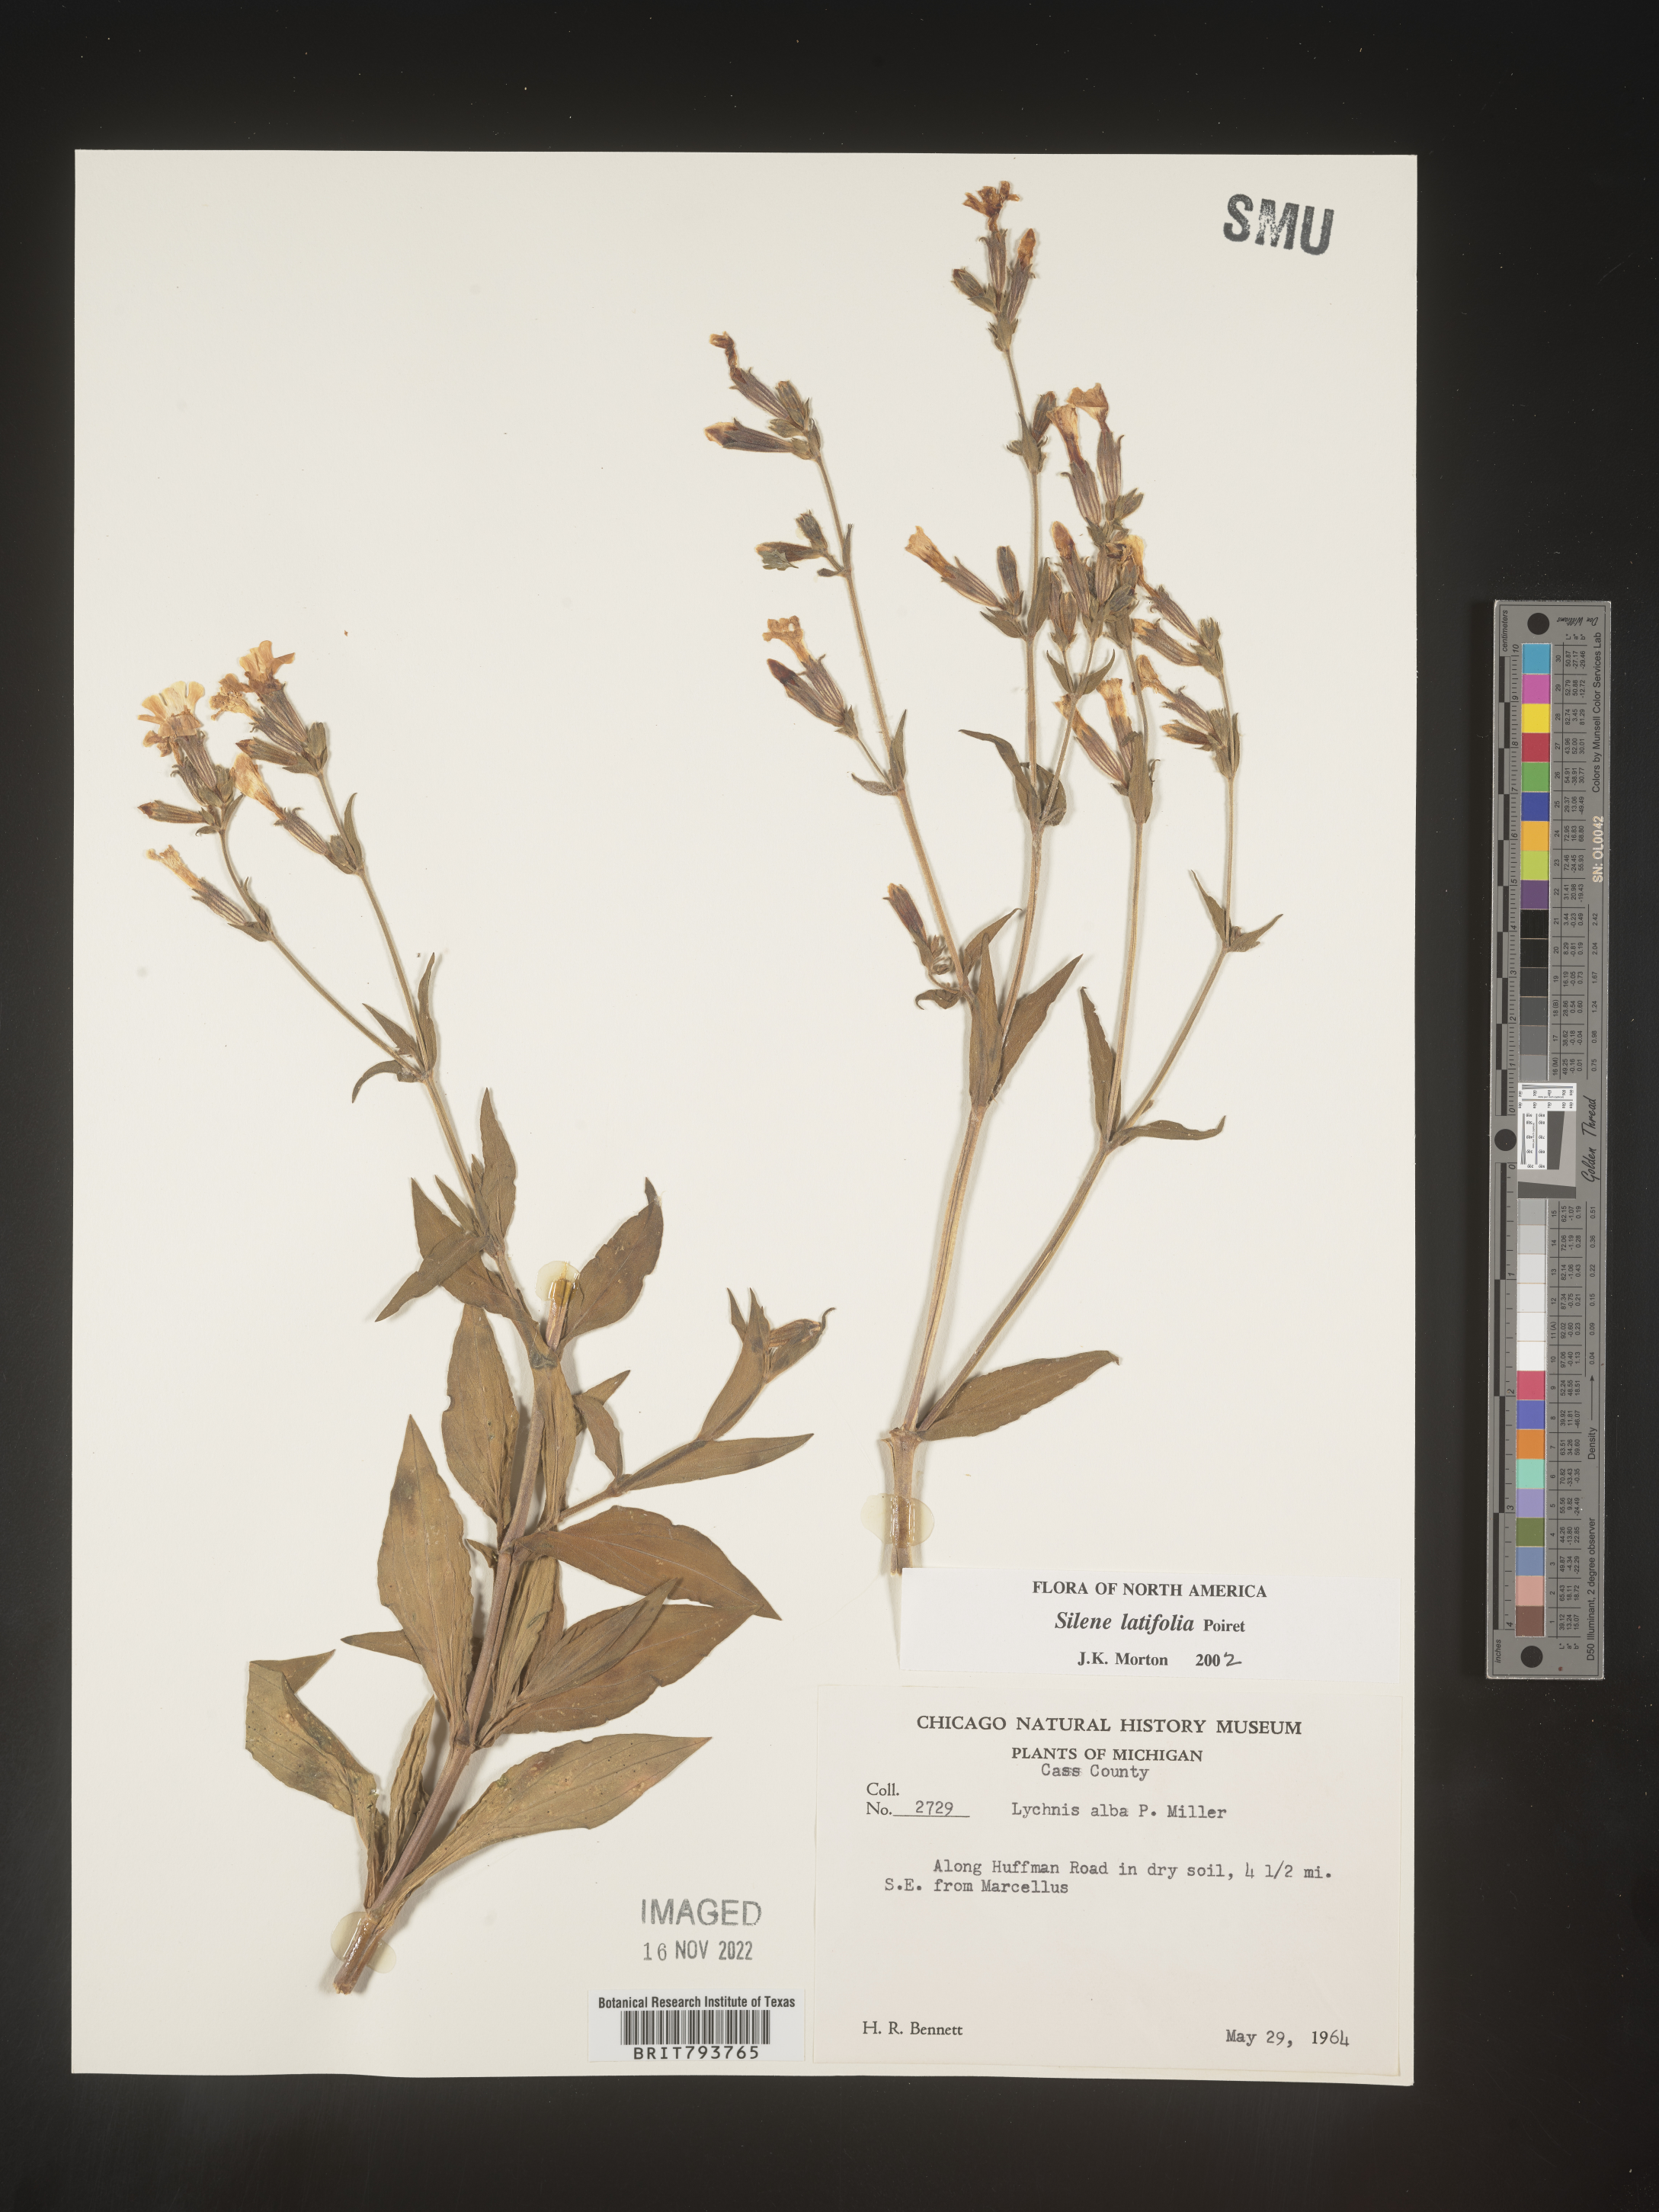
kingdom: Plantae
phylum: Tracheophyta
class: Magnoliopsida
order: Caryophyllales
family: Caryophyllaceae
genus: Silene
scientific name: Silene latifolia
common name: White campion
